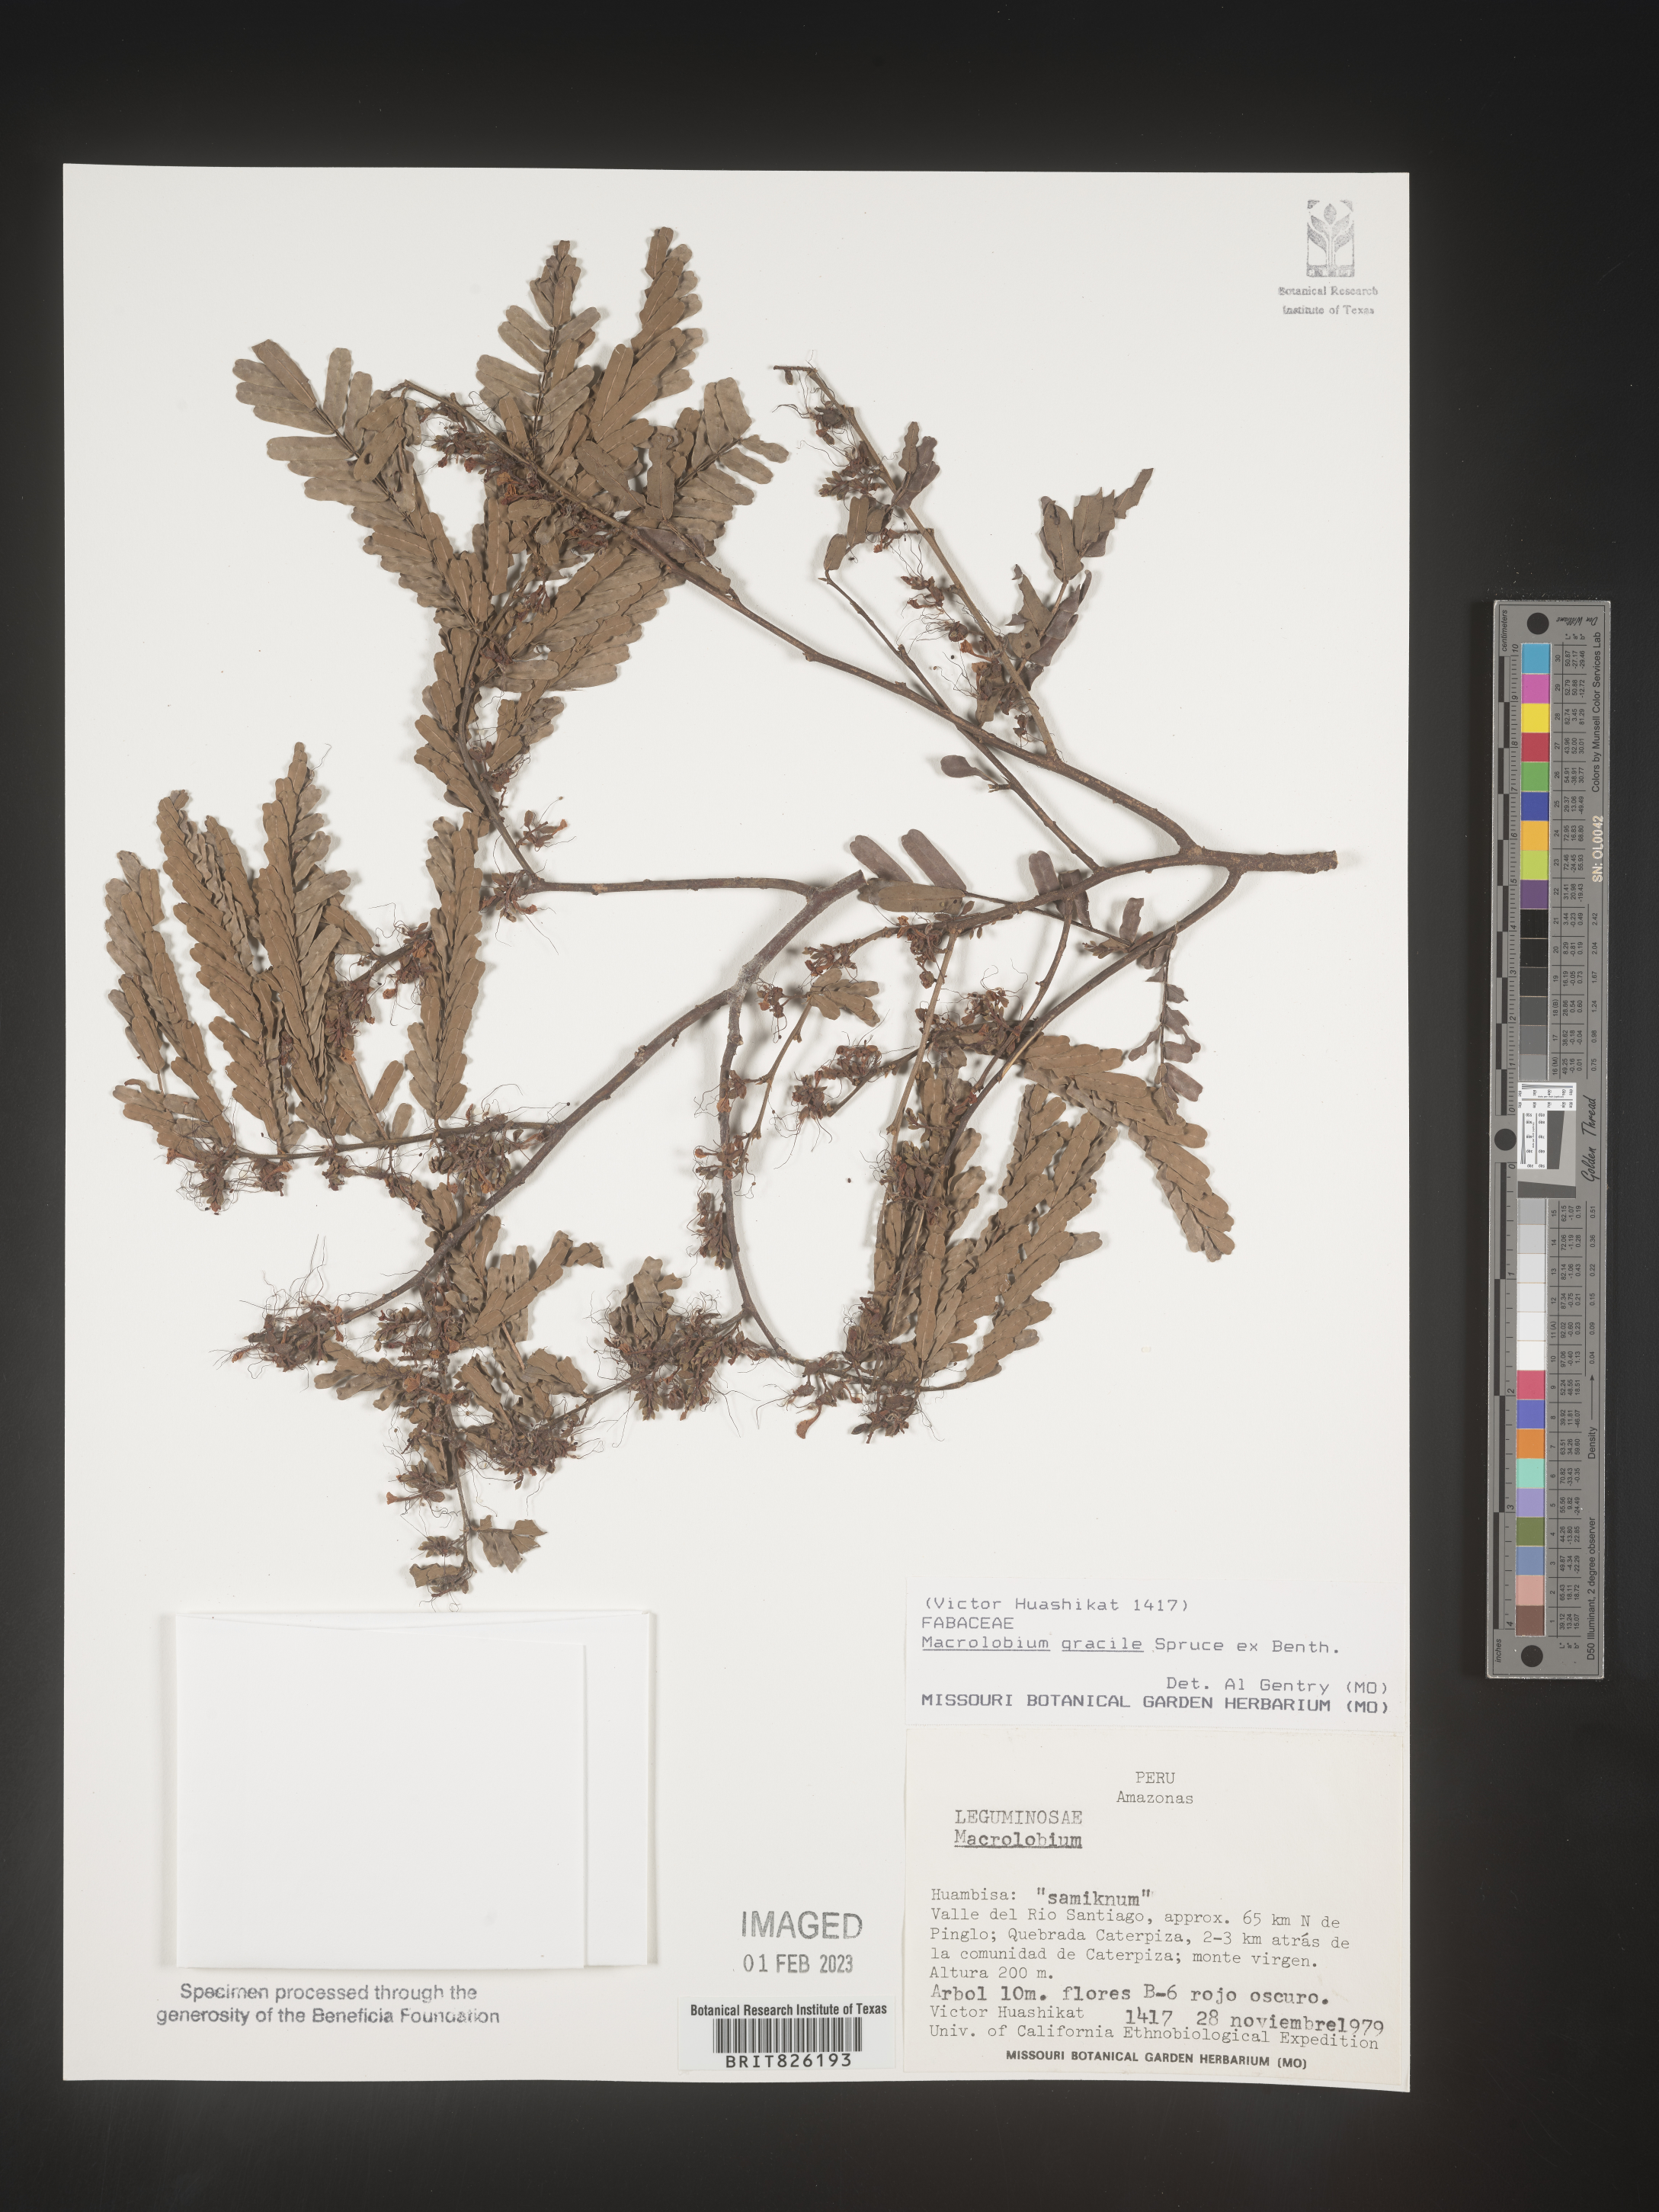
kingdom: Plantae
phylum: Tracheophyta
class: Magnoliopsida
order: Fabales
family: Fabaceae
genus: Macrolobium
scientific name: Macrolobium
